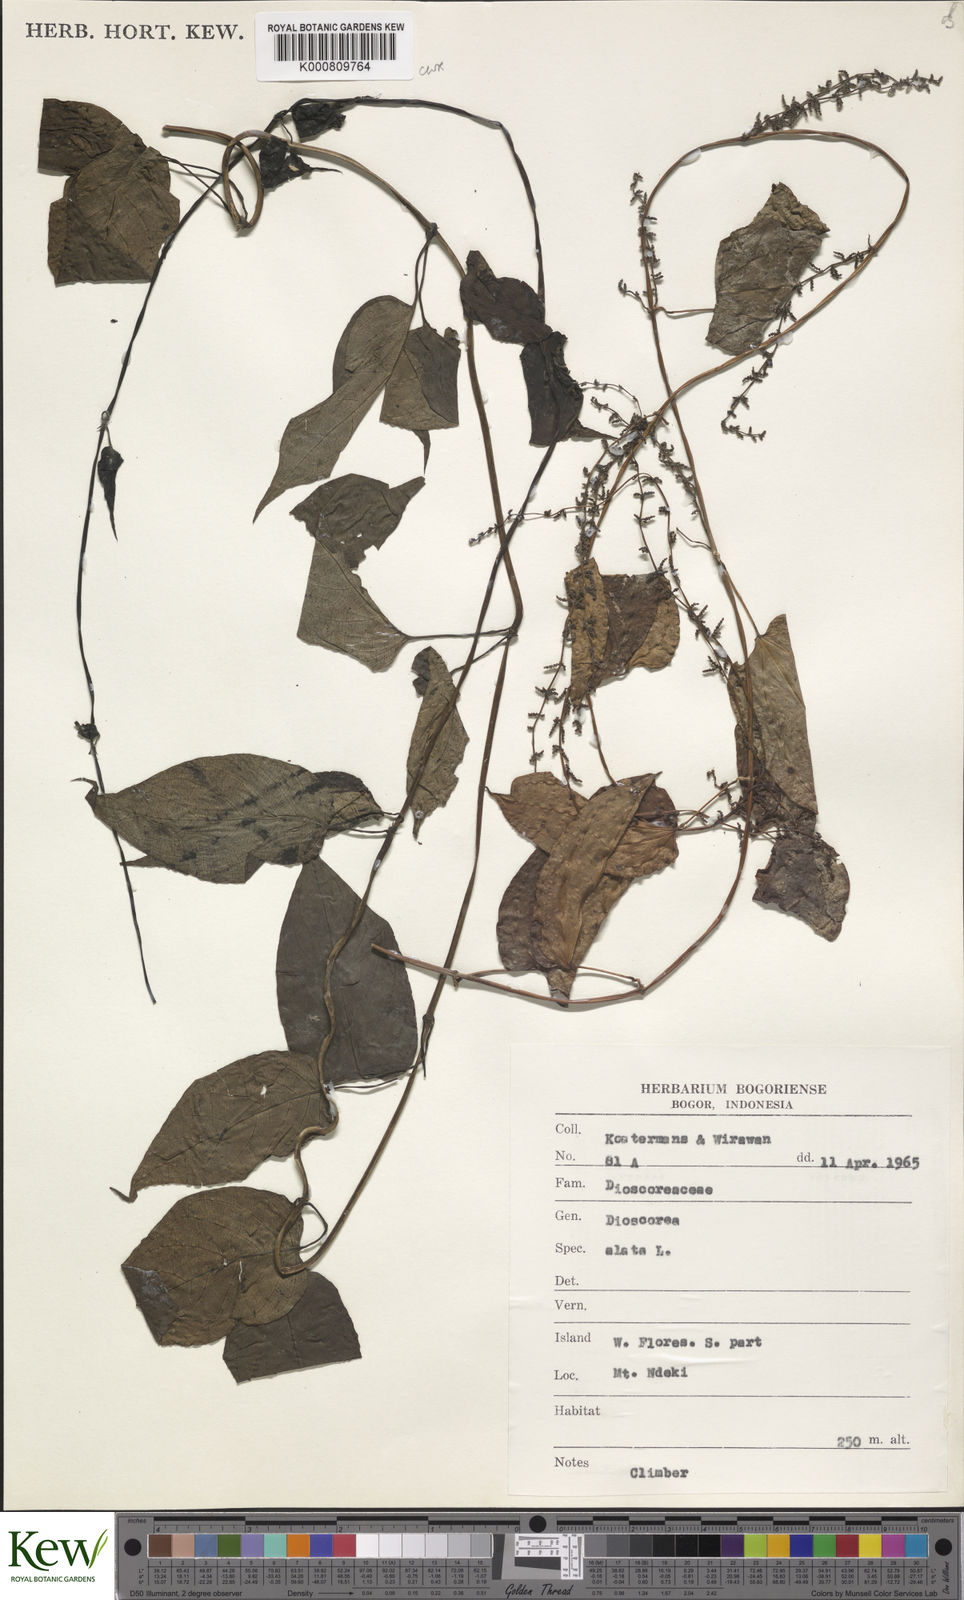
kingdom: Plantae
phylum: Tracheophyta
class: Liliopsida
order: Dioscoreales
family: Dioscoreaceae
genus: Dioscorea
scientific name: Dioscorea alata
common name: Water yam
